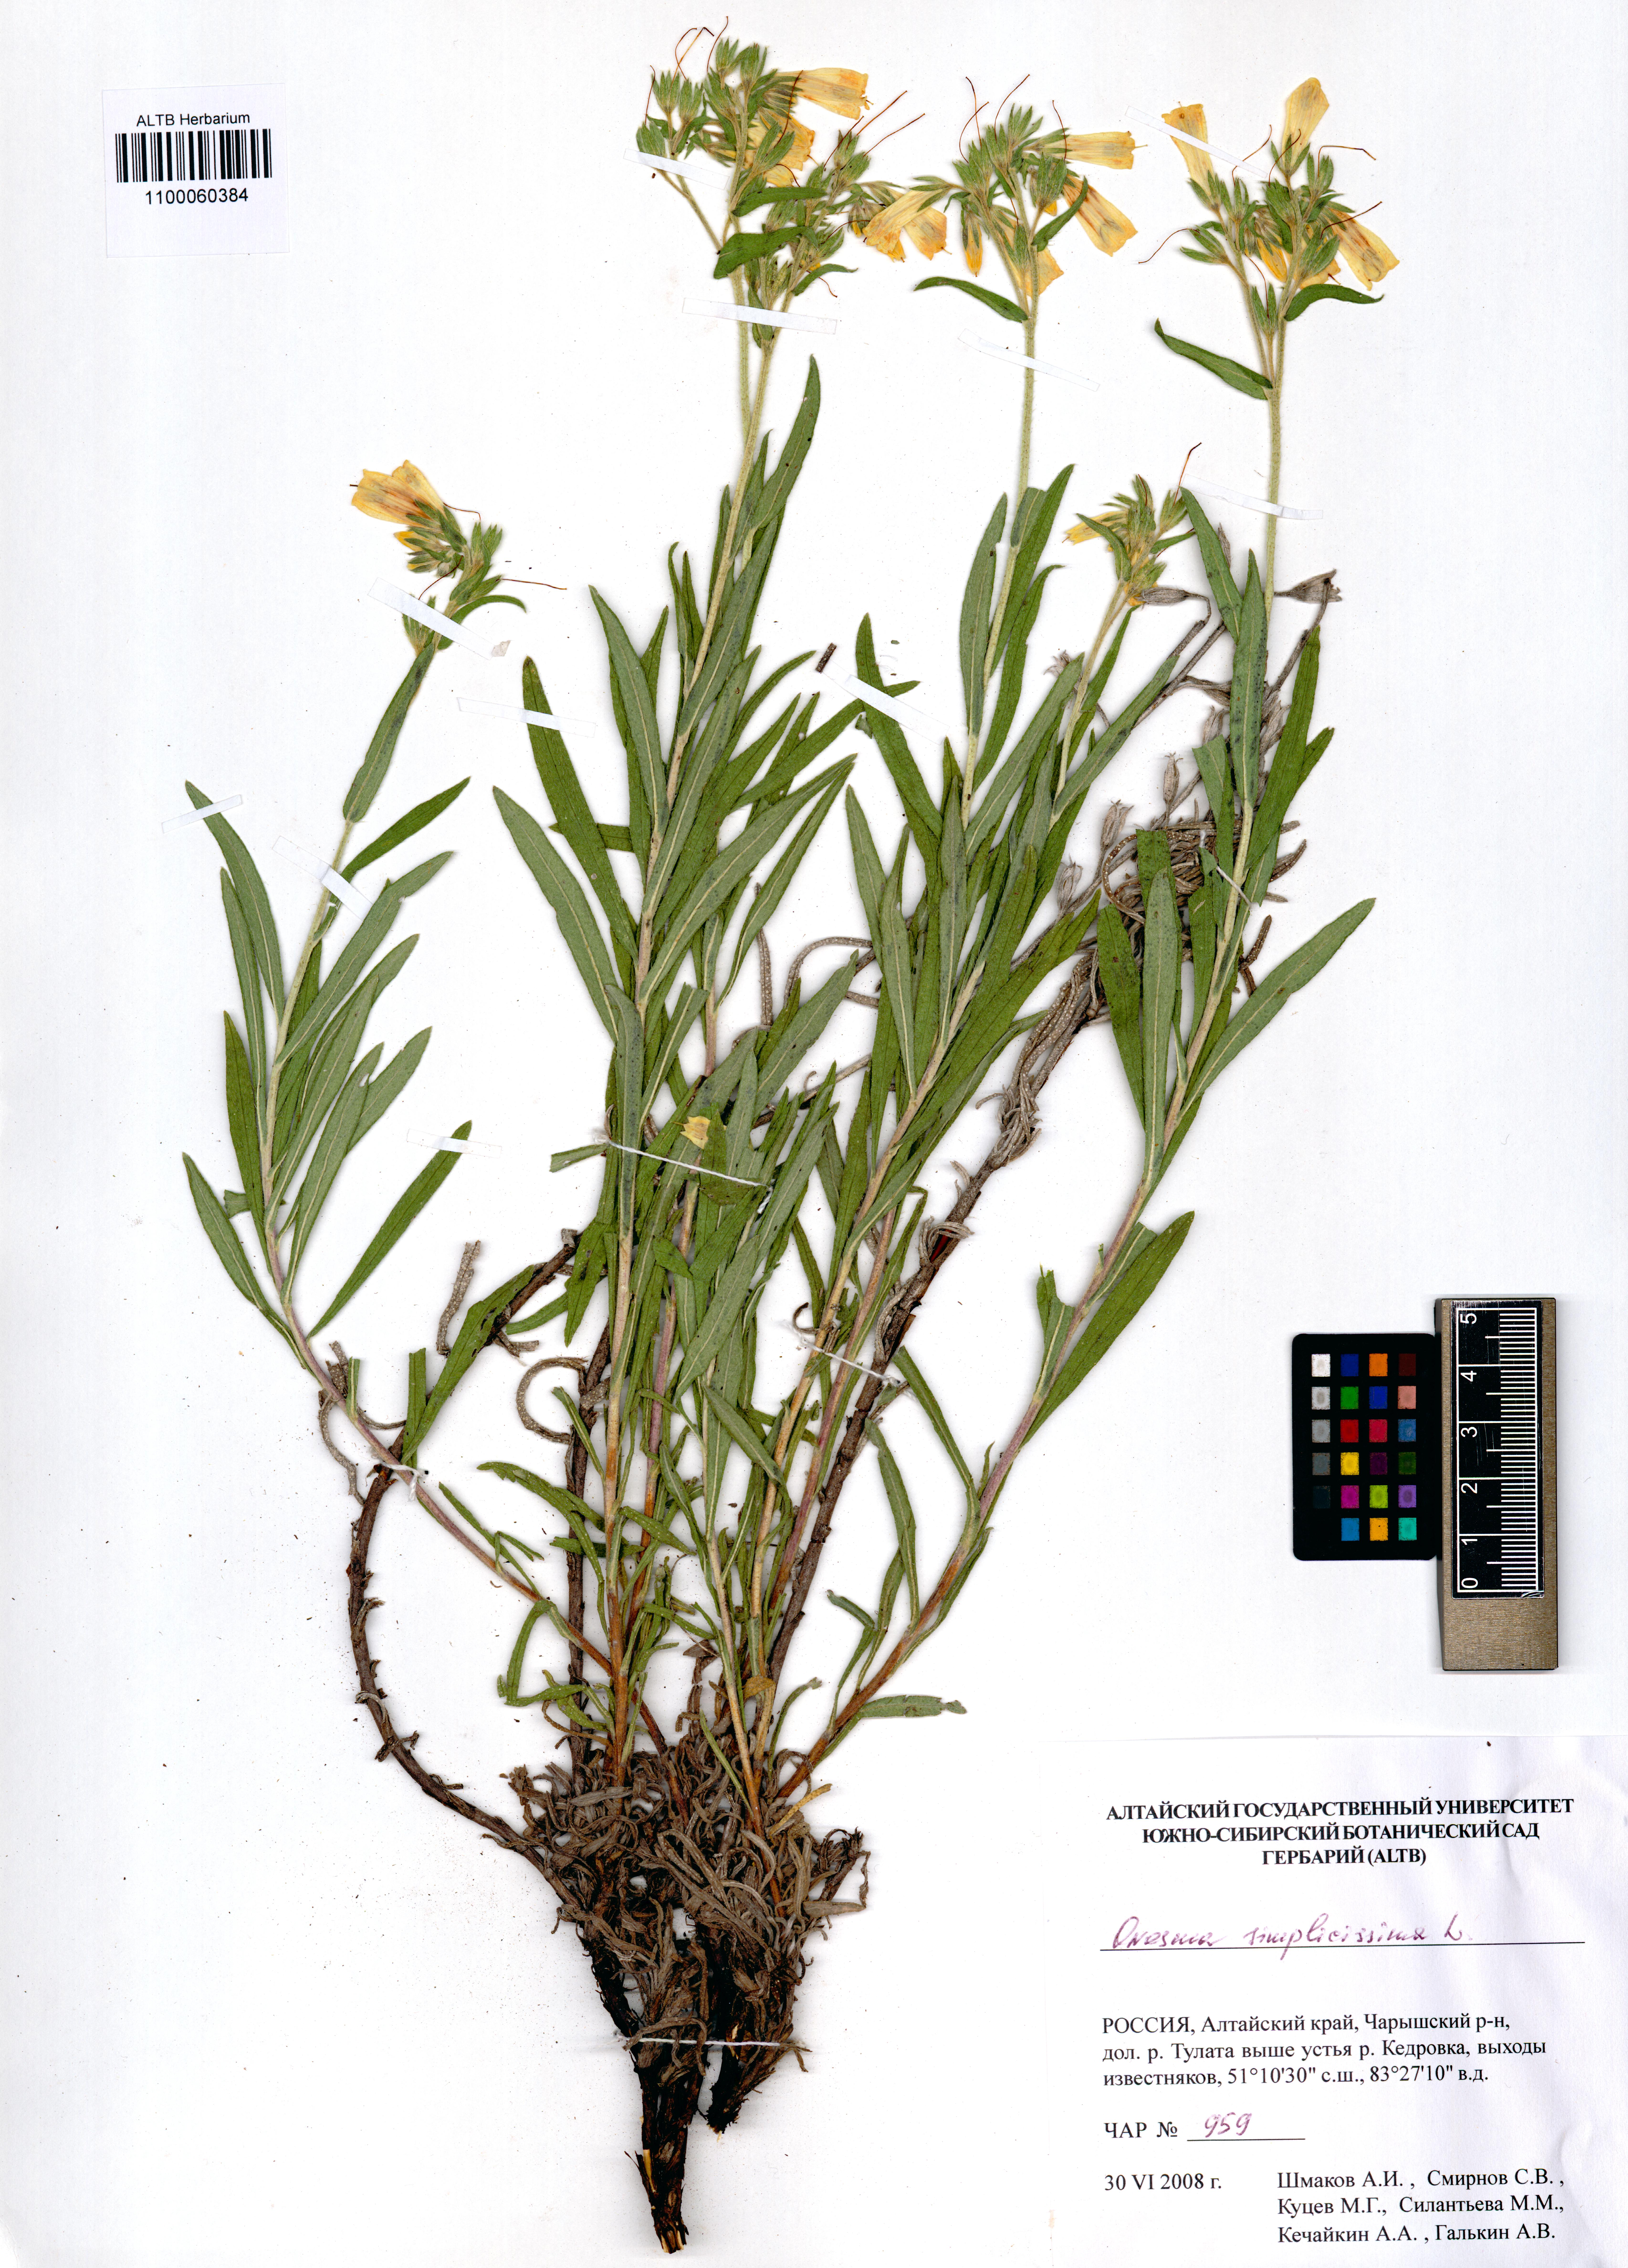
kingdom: Plantae
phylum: Tracheophyta
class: Magnoliopsida
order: Boraginales
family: Boraginaceae
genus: Onosma
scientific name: Onosma simplicissima
